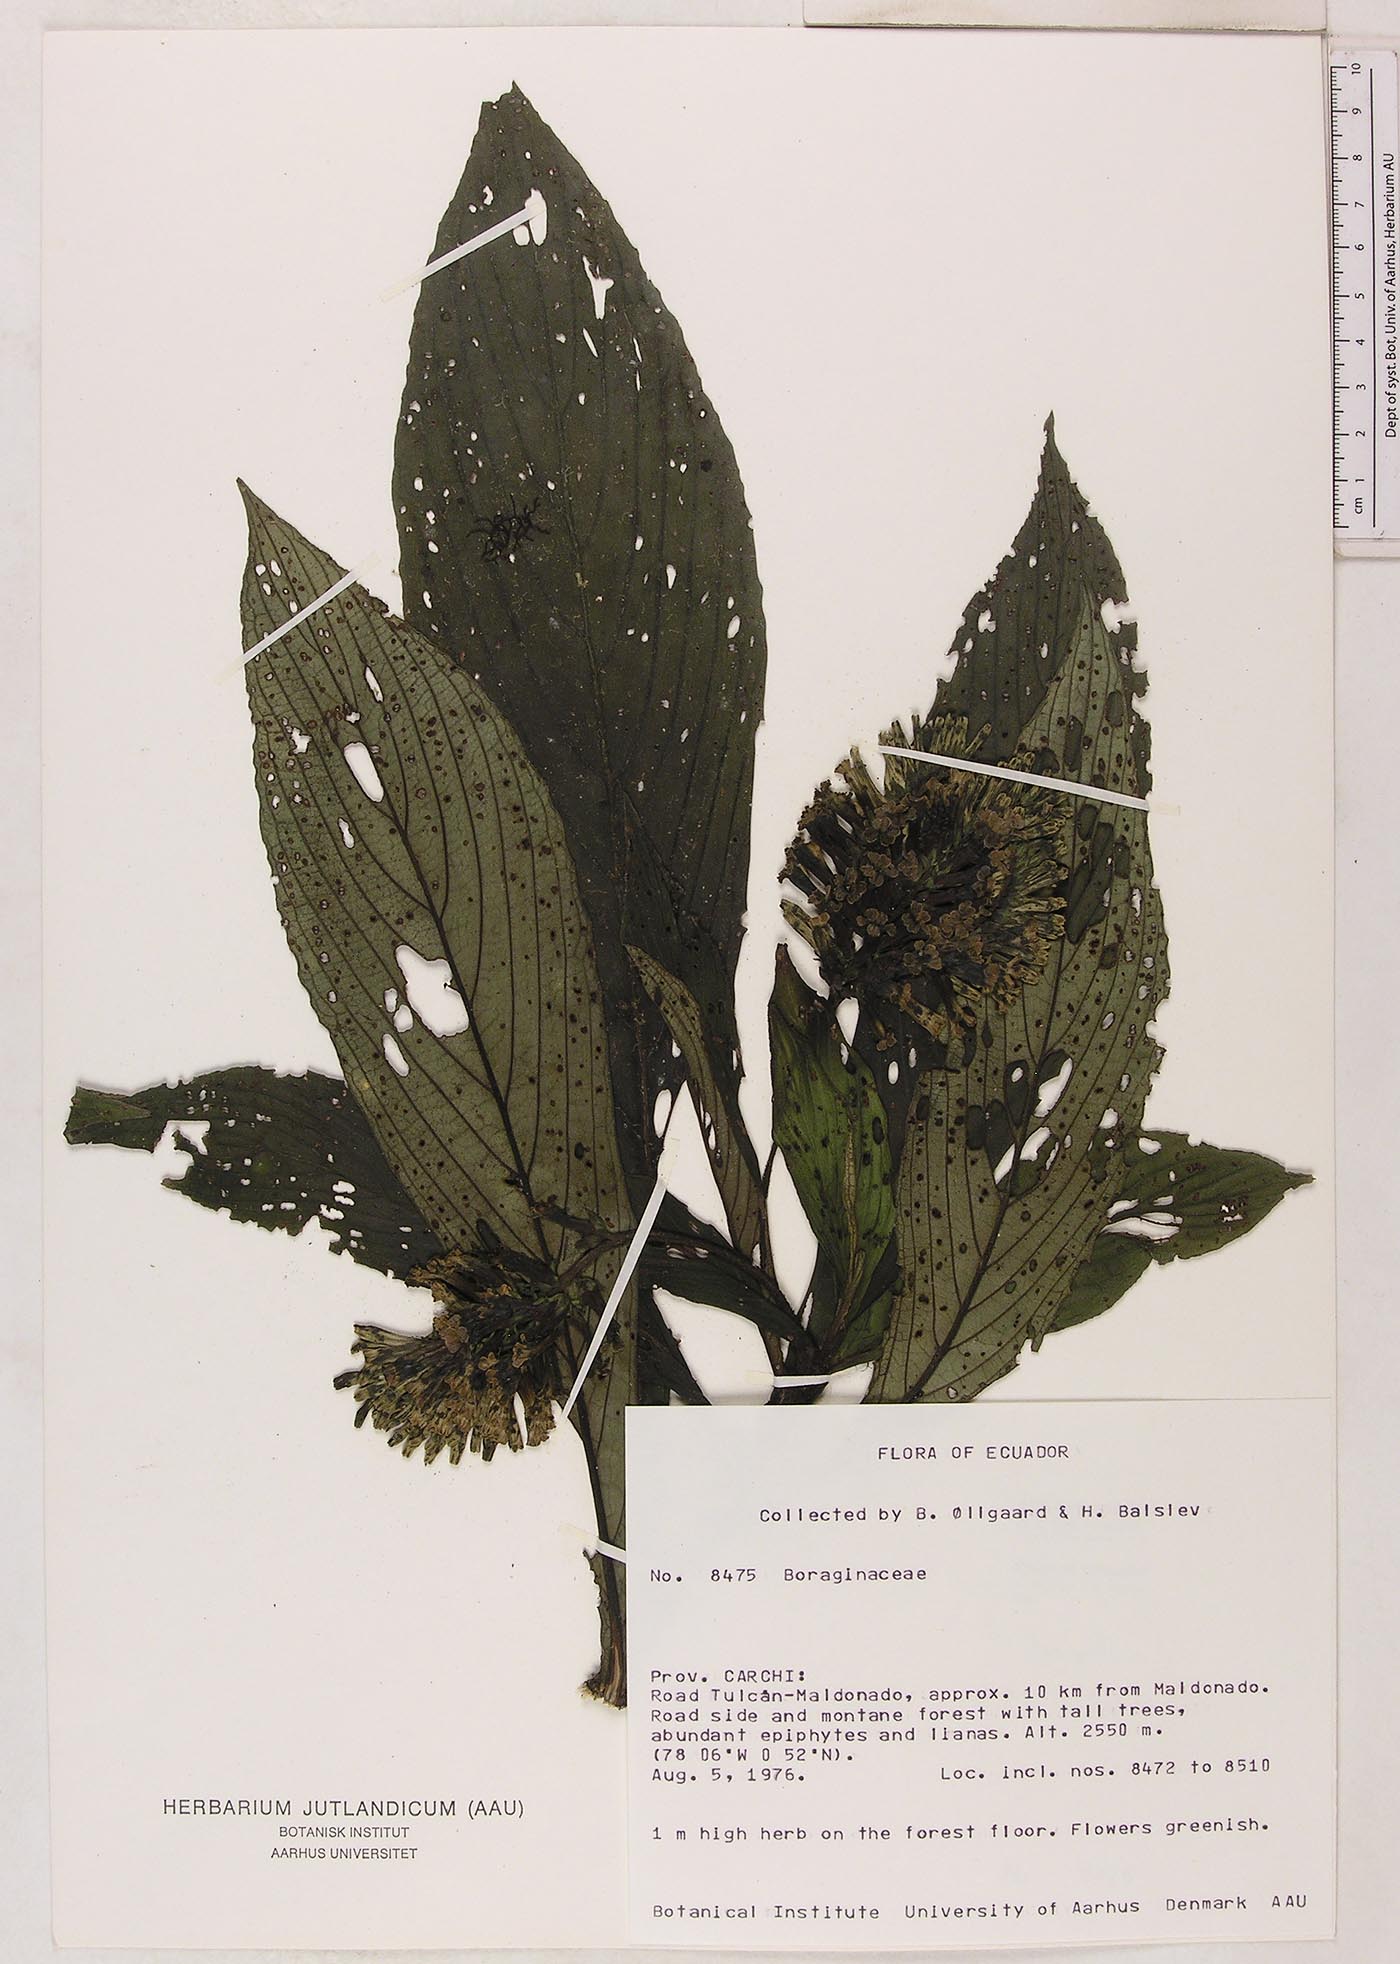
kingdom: Plantae
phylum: Tracheophyta
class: Magnoliopsida
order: Boraginales
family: Heliotropiaceae
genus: Tournefortia
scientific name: Tournefortia
